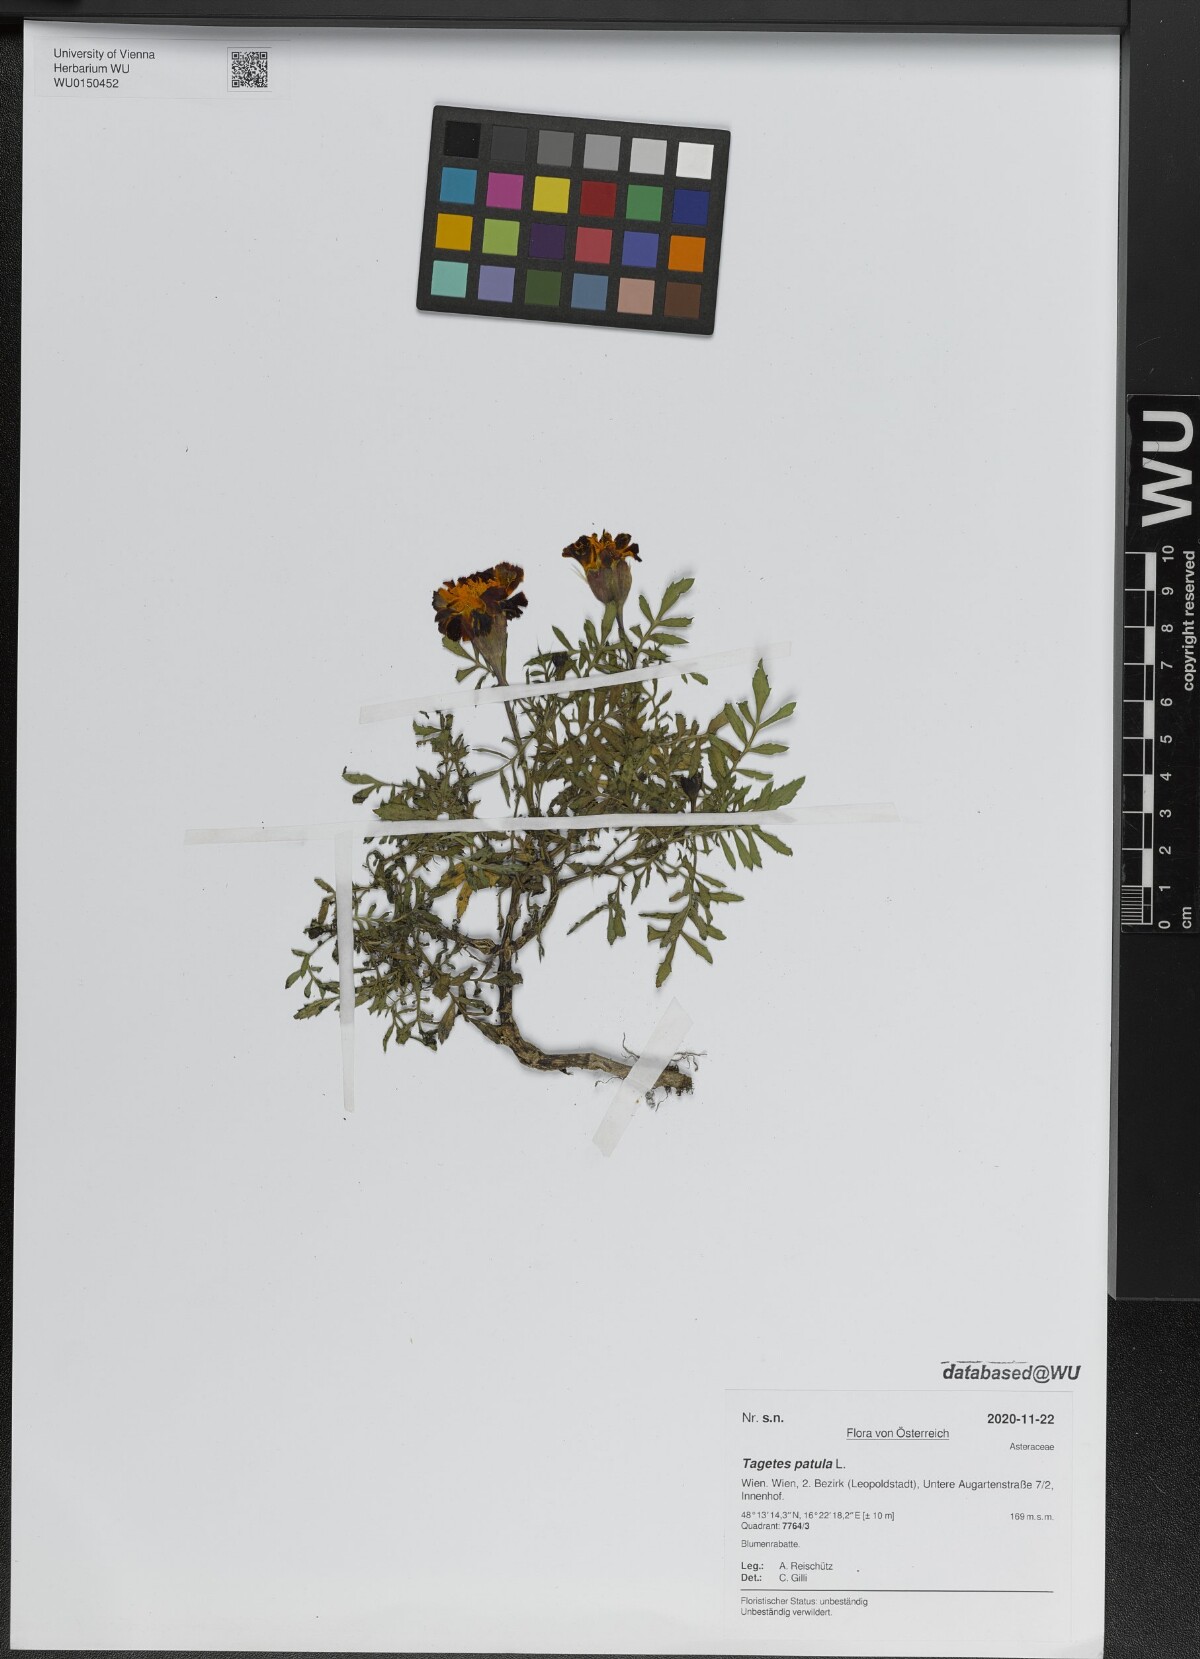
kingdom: Plantae
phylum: Tracheophyta
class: Magnoliopsida
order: Asterales
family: Asteraceae
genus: Tagetes
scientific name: Tagetes erecta
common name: African marigold
